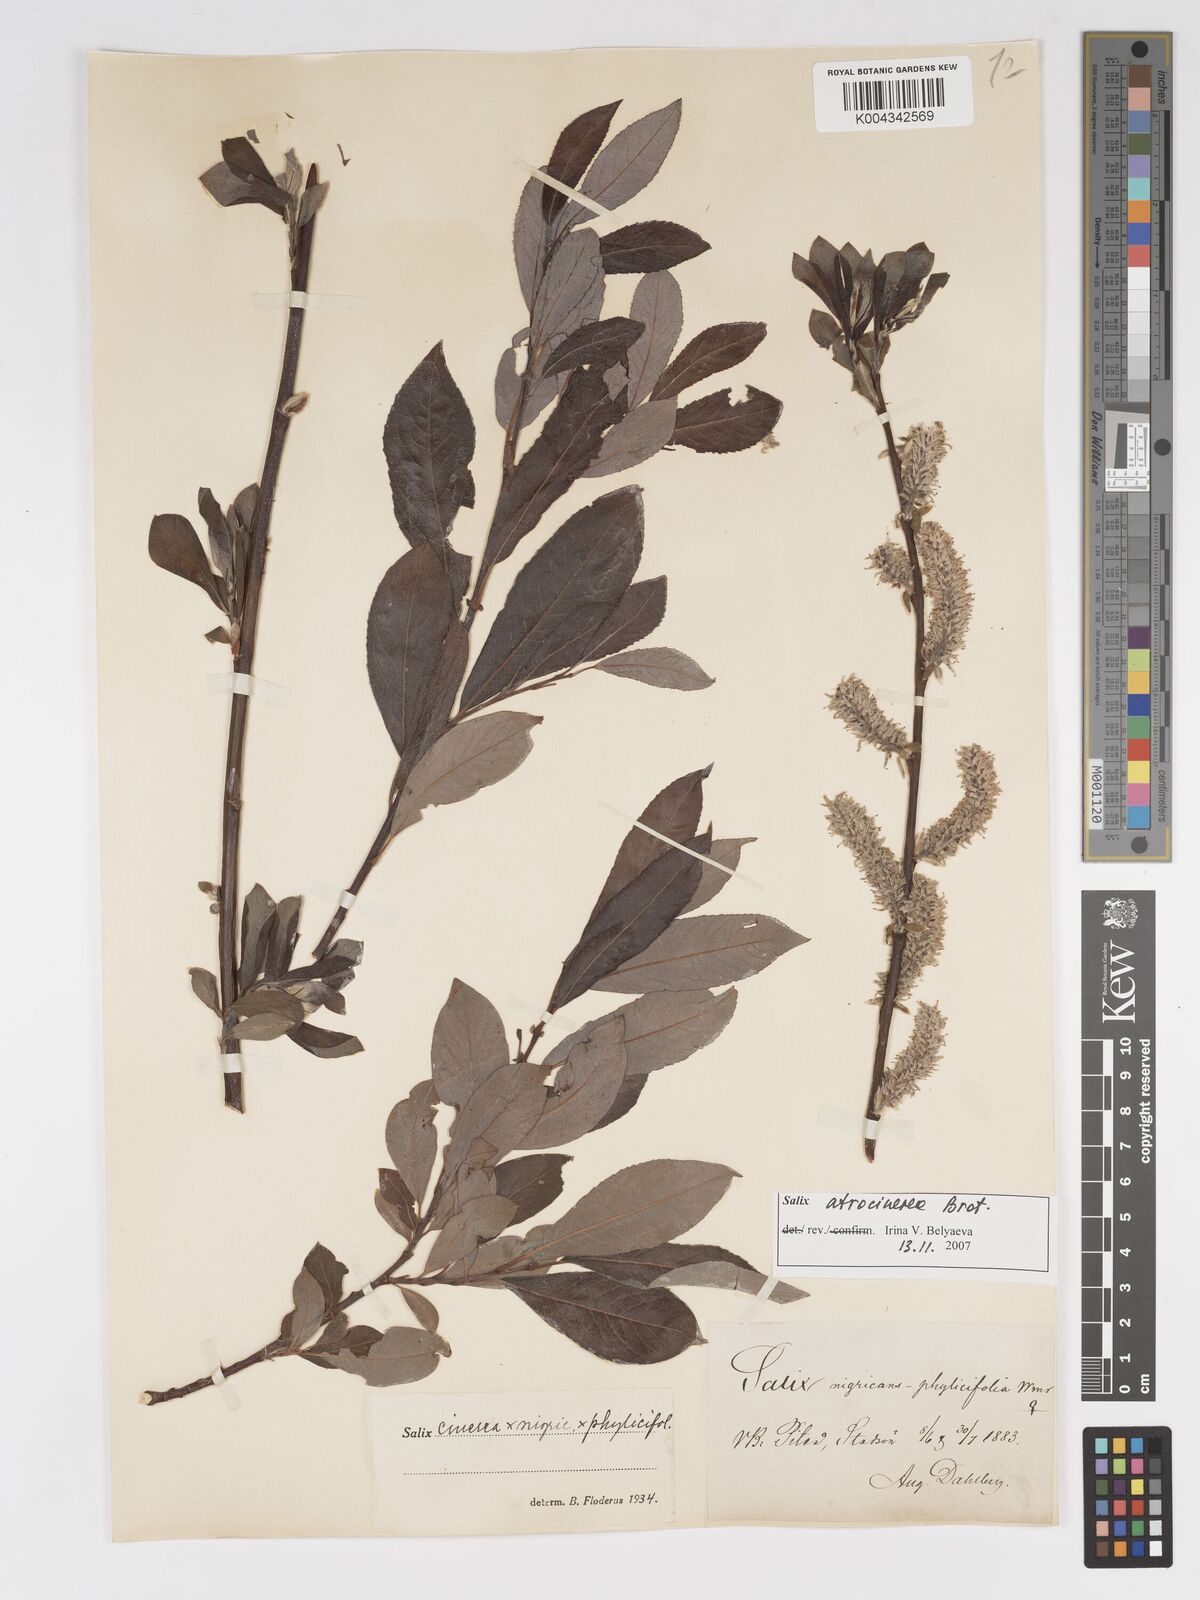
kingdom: Plantae
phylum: Tracheophyta
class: Magnoliopsida
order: Malpighiales
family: Salicaceae
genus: Salix
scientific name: Salix cinerea
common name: Common sallow
